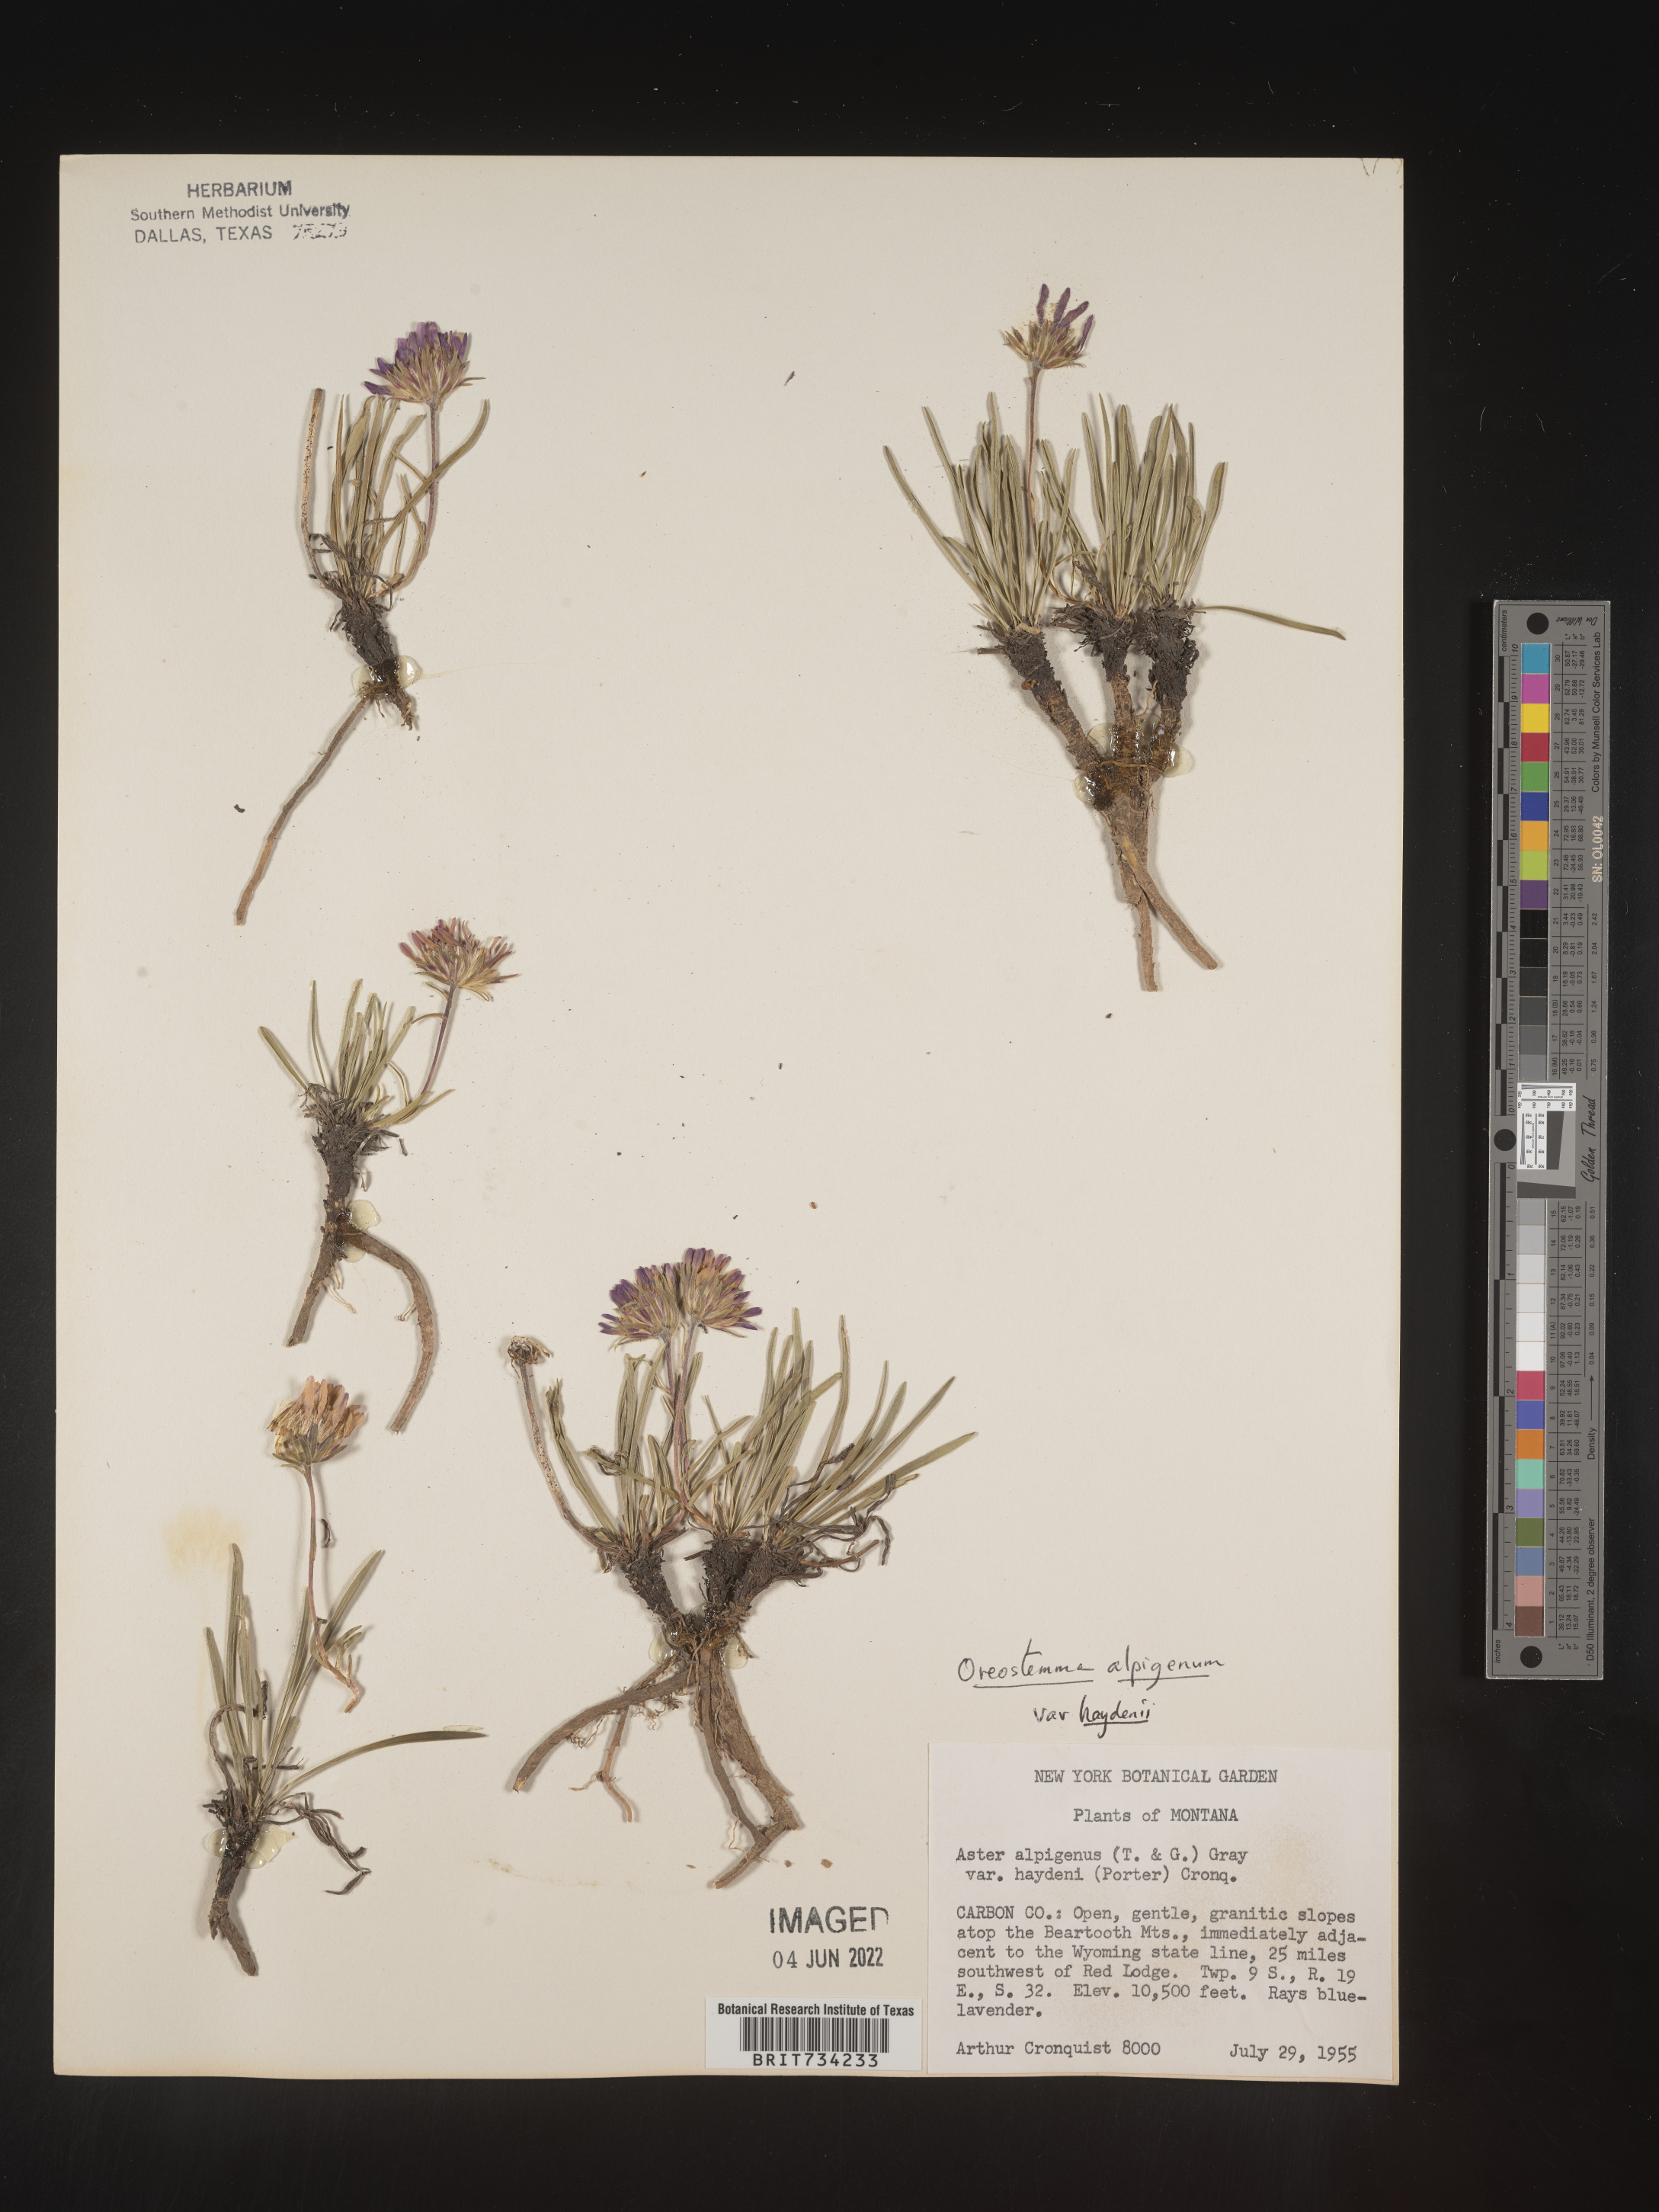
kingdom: Plantae
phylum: Tracheophyta
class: Magnoliopsida
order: Asterales
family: Asteraceae
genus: Oreostemma
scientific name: Oreostemma alpigenum
